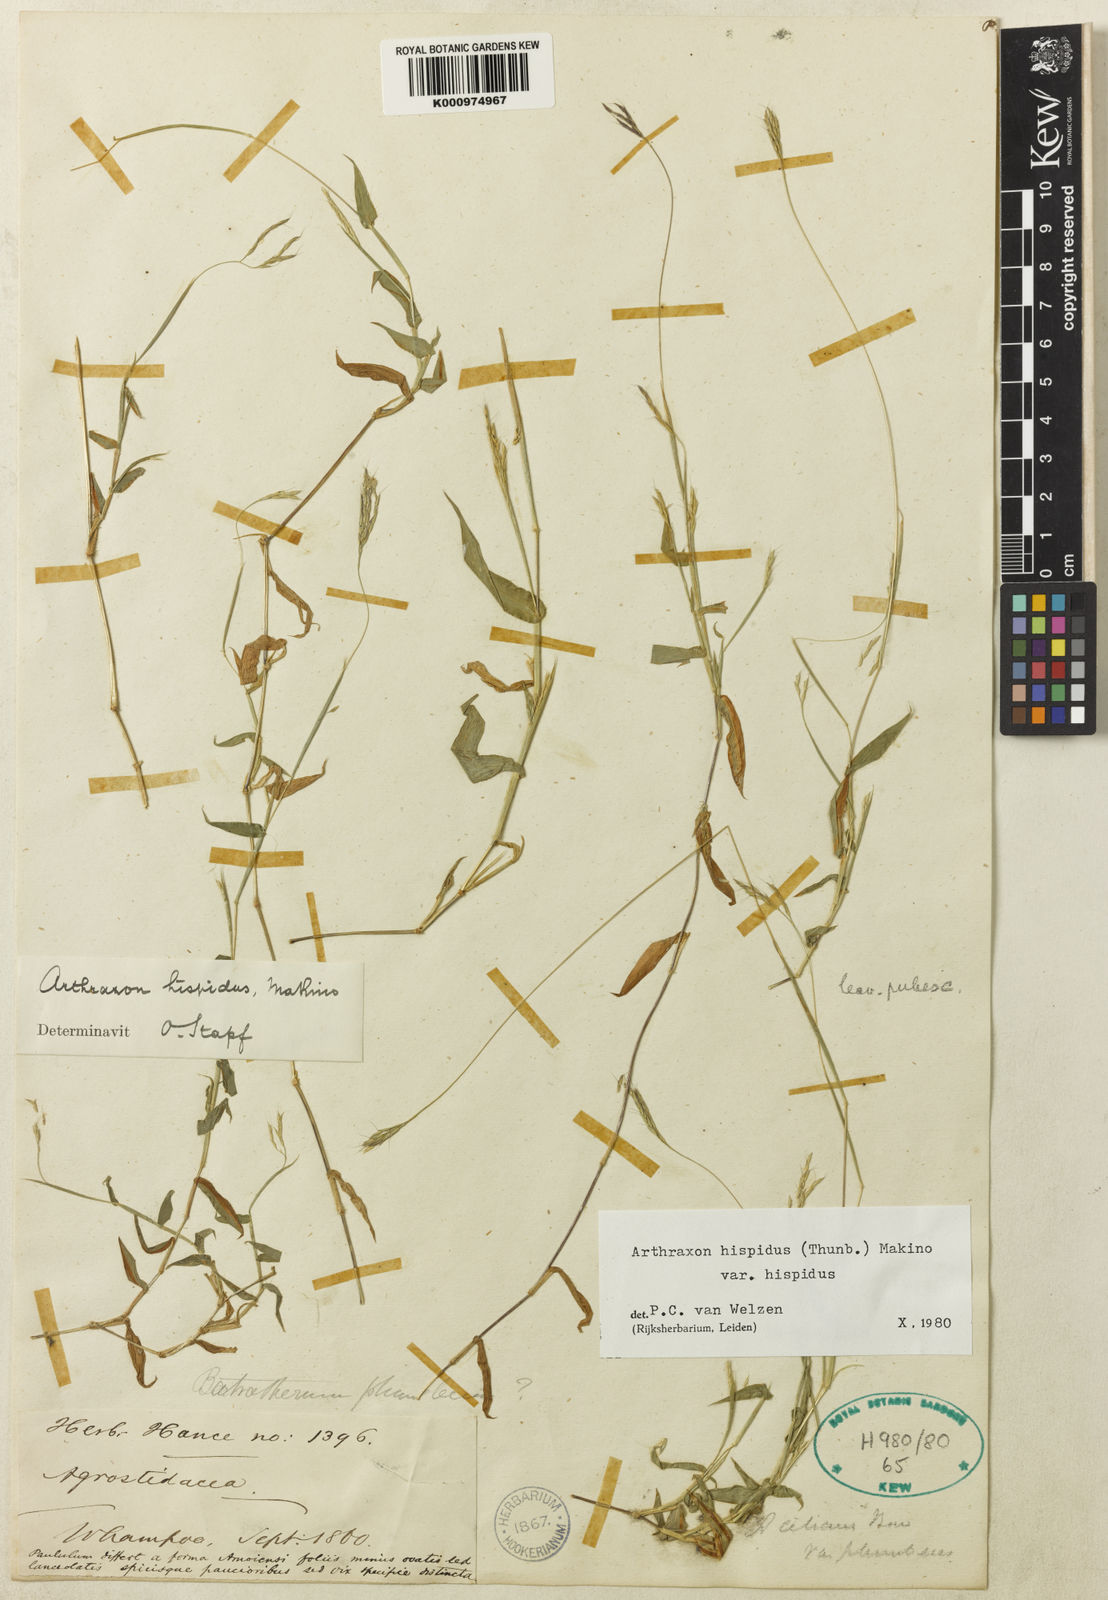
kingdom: Plantae
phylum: Tracheophyta
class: Liliopsida
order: Poales
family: Poaceae
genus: Arthraxon
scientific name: Arthraxon hispidus
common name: Small carpgrass
